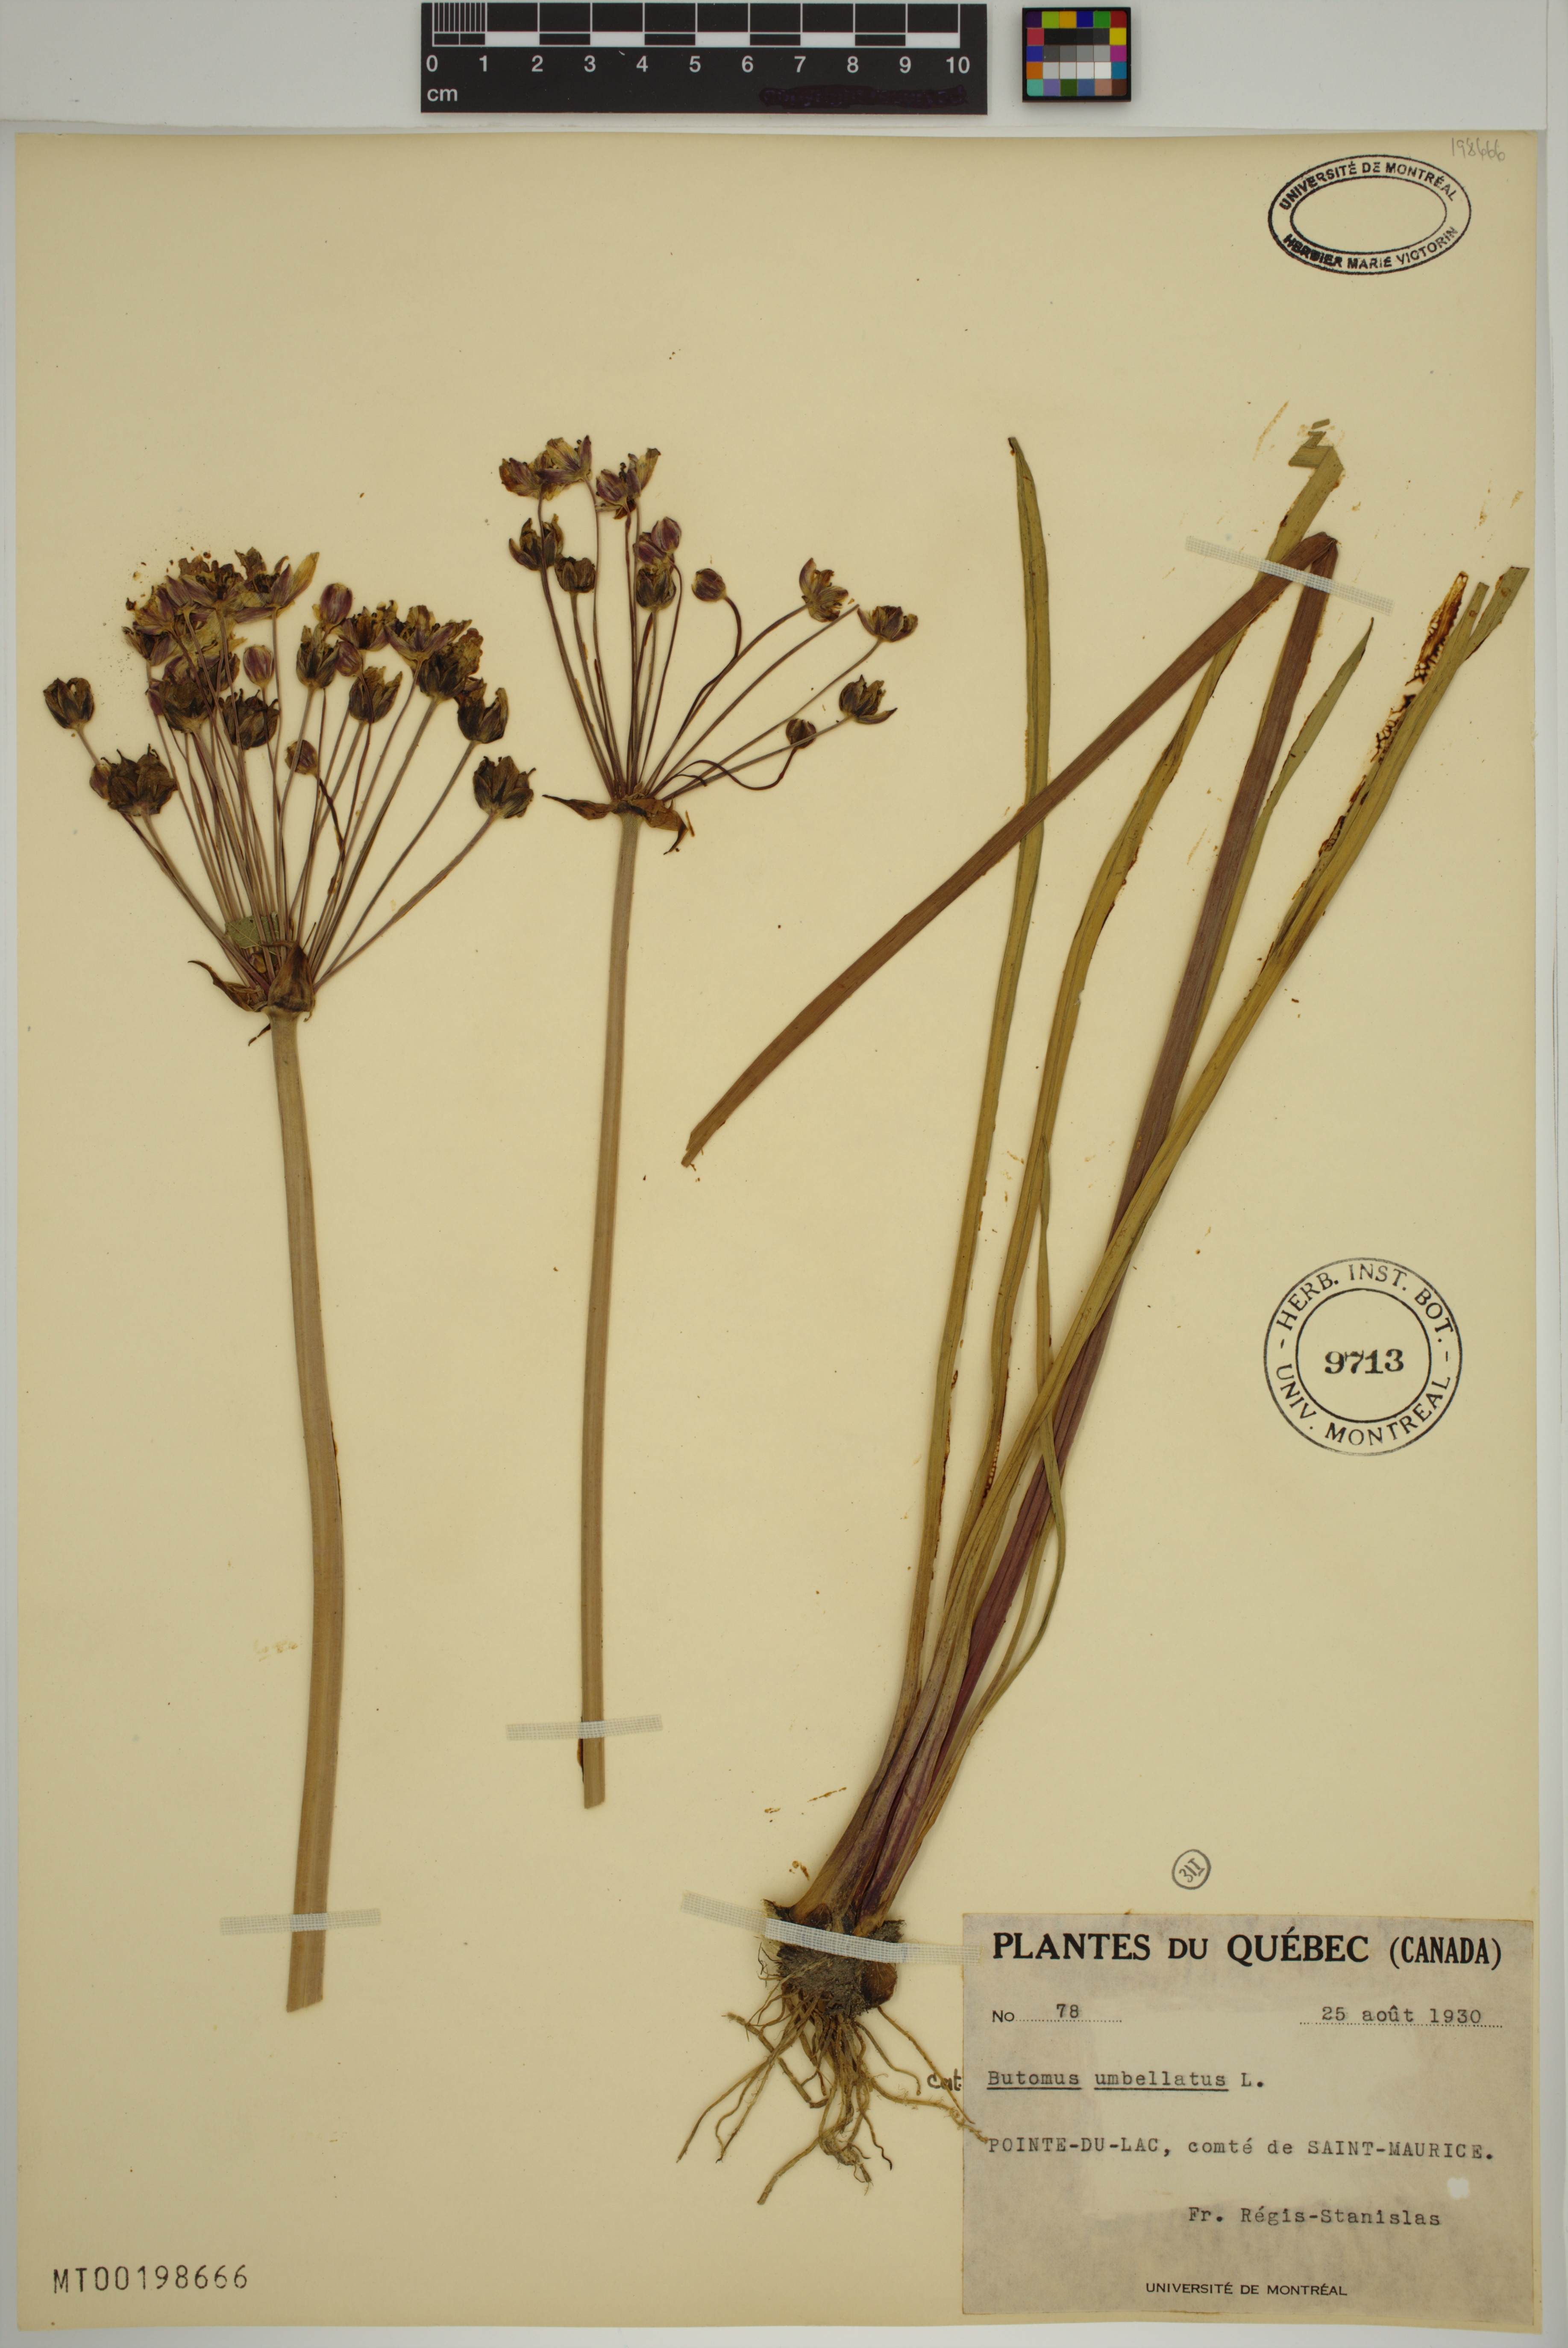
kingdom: Plantae
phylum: Tracheophyta
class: Liliopsida
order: Alismatales
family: Butomaceae
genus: Butomus
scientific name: Butomus umbellatus
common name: Flowering-rush
